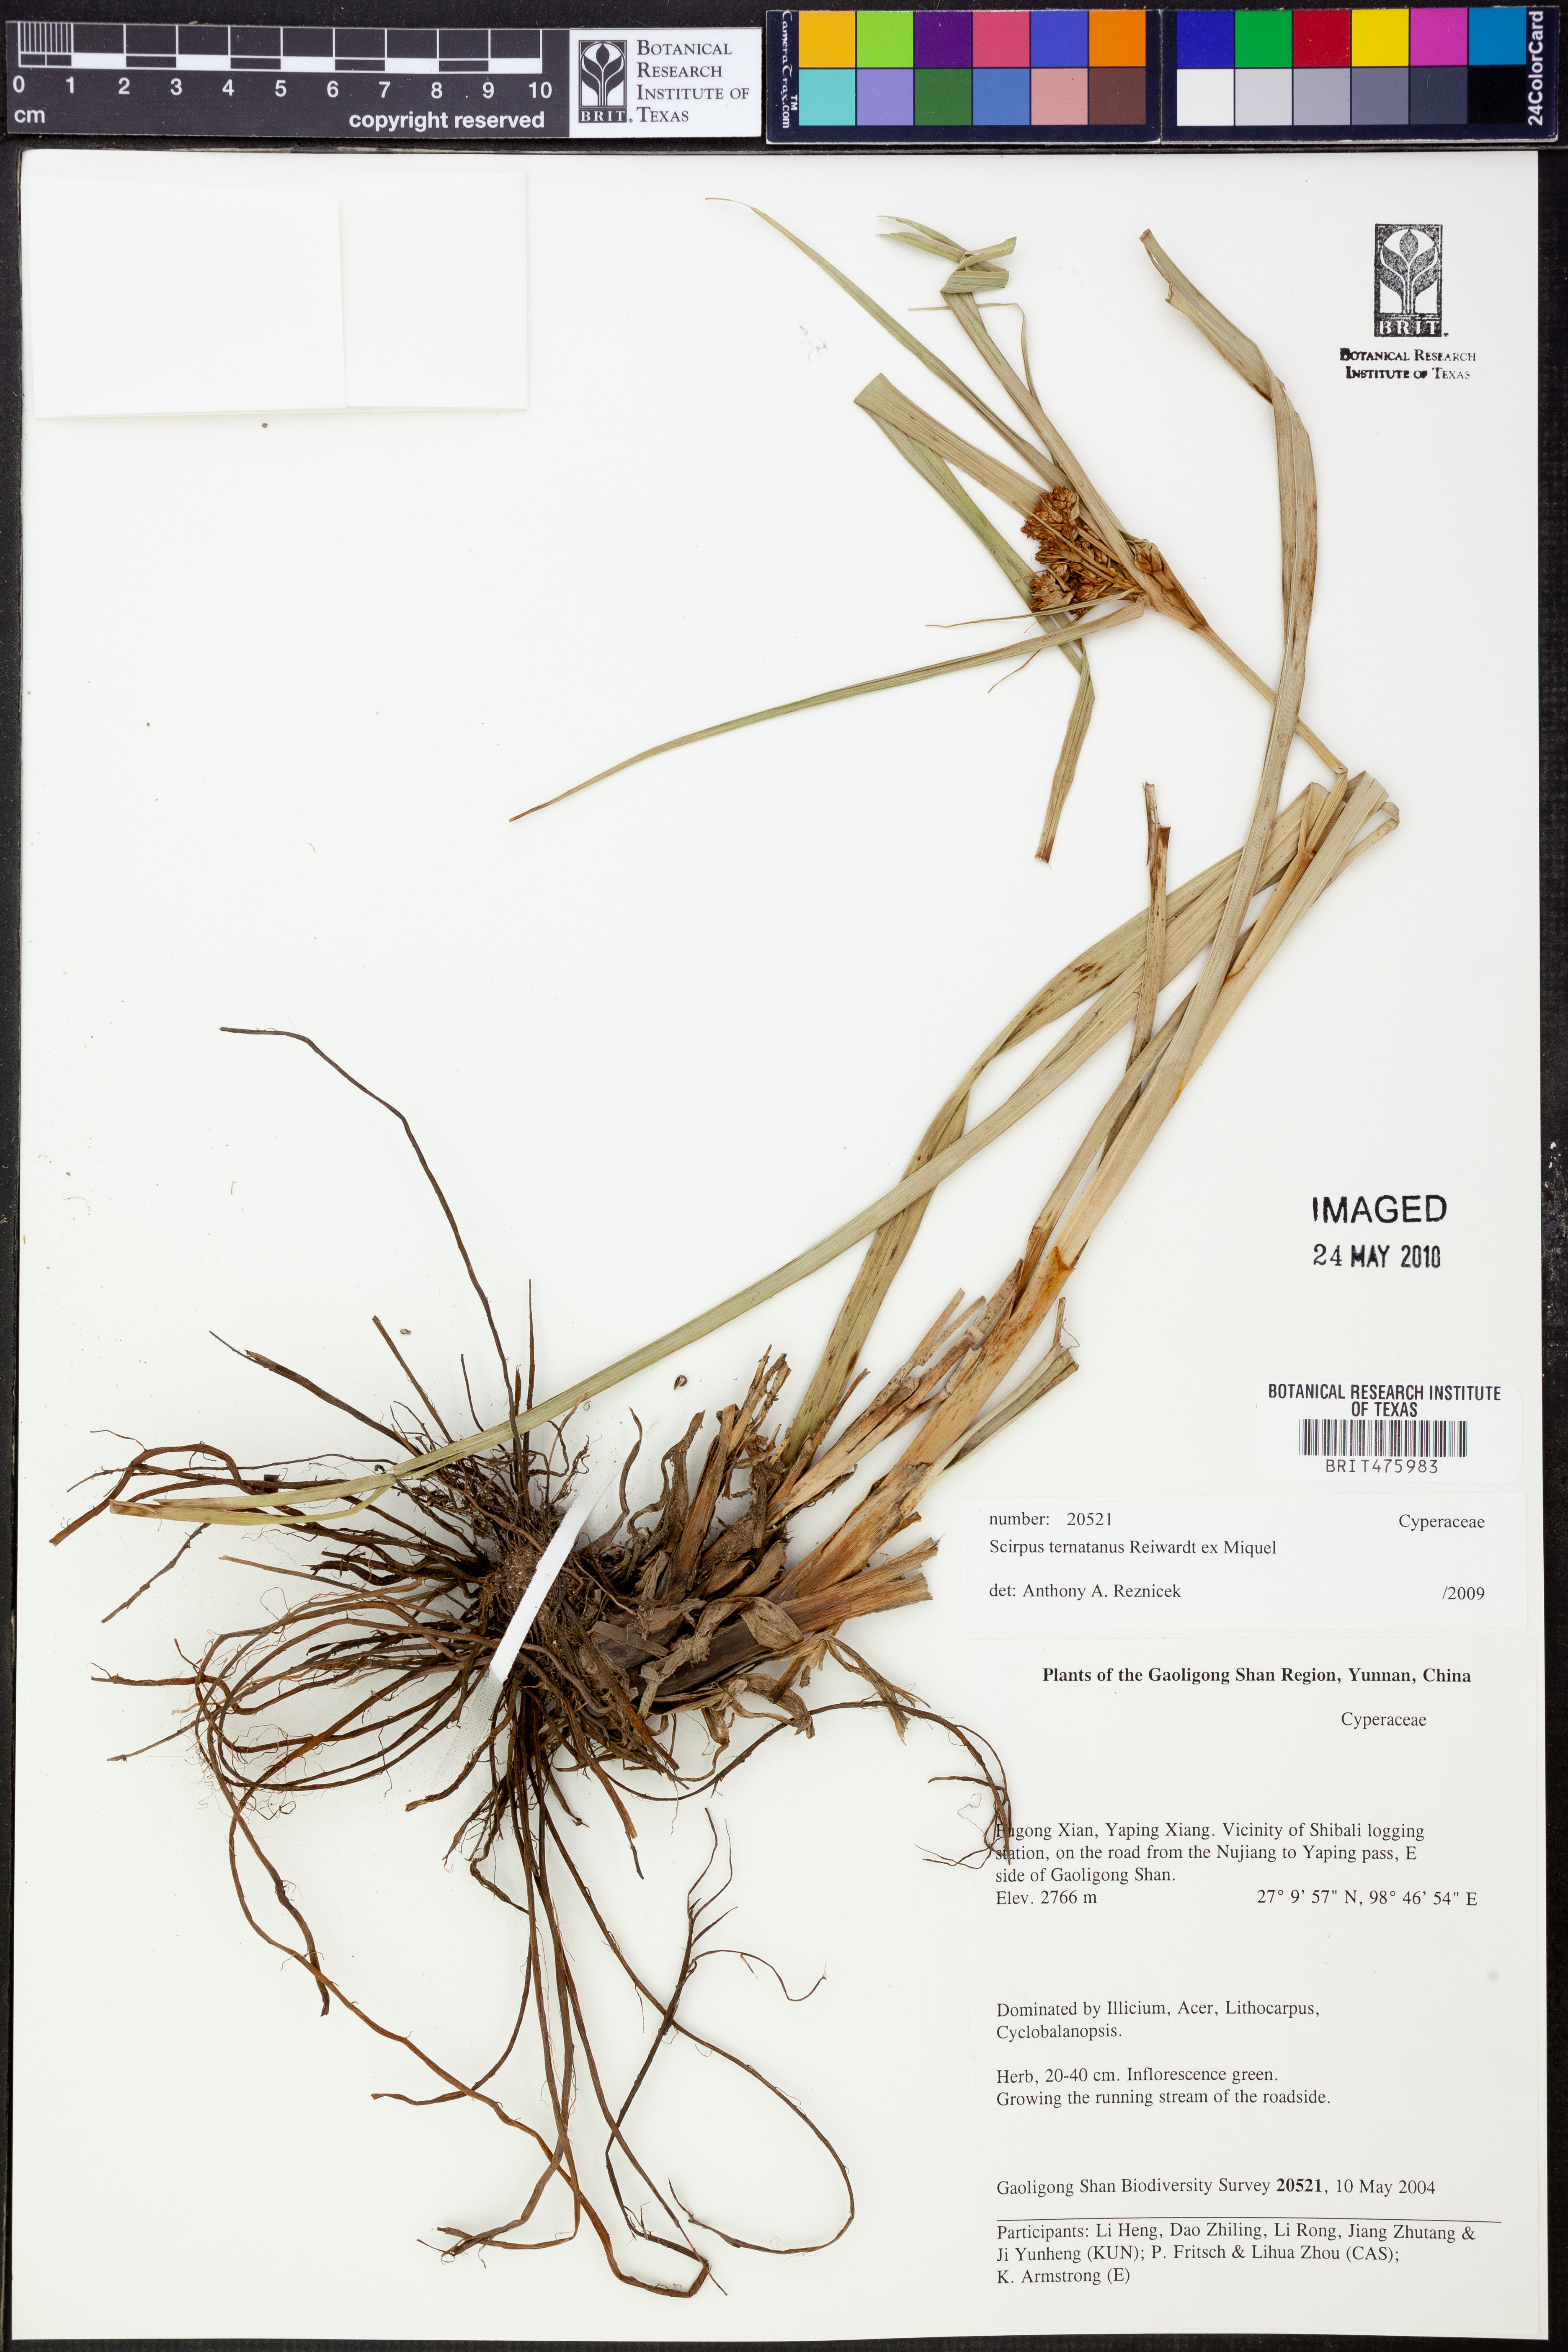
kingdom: Plantae
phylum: Tracheophyta
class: Liliopsida
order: Poales
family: Cyperaceae
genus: Scirpus
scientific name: Scirpus ternatanus
